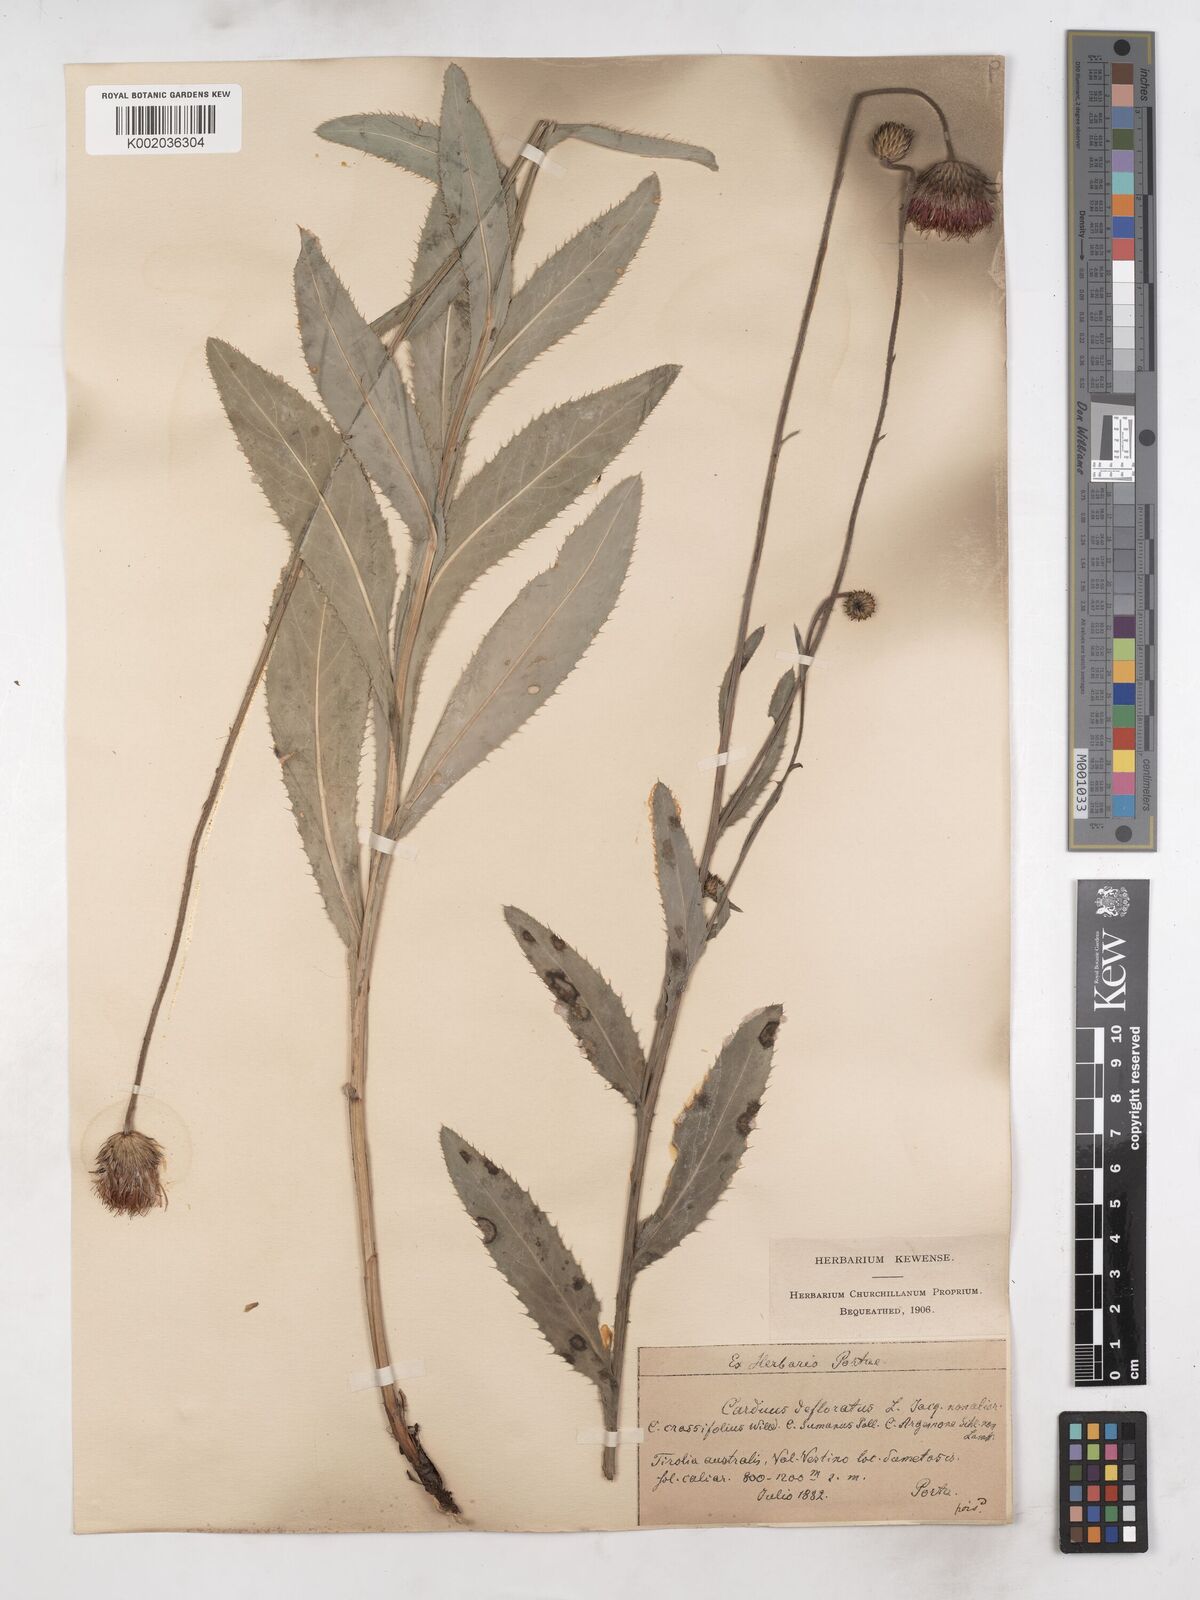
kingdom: Plantae
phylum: Tracheophyta
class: Magnoliopsida
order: Asterales
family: Asteraceae
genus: Carduus
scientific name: Carduus defloratus
